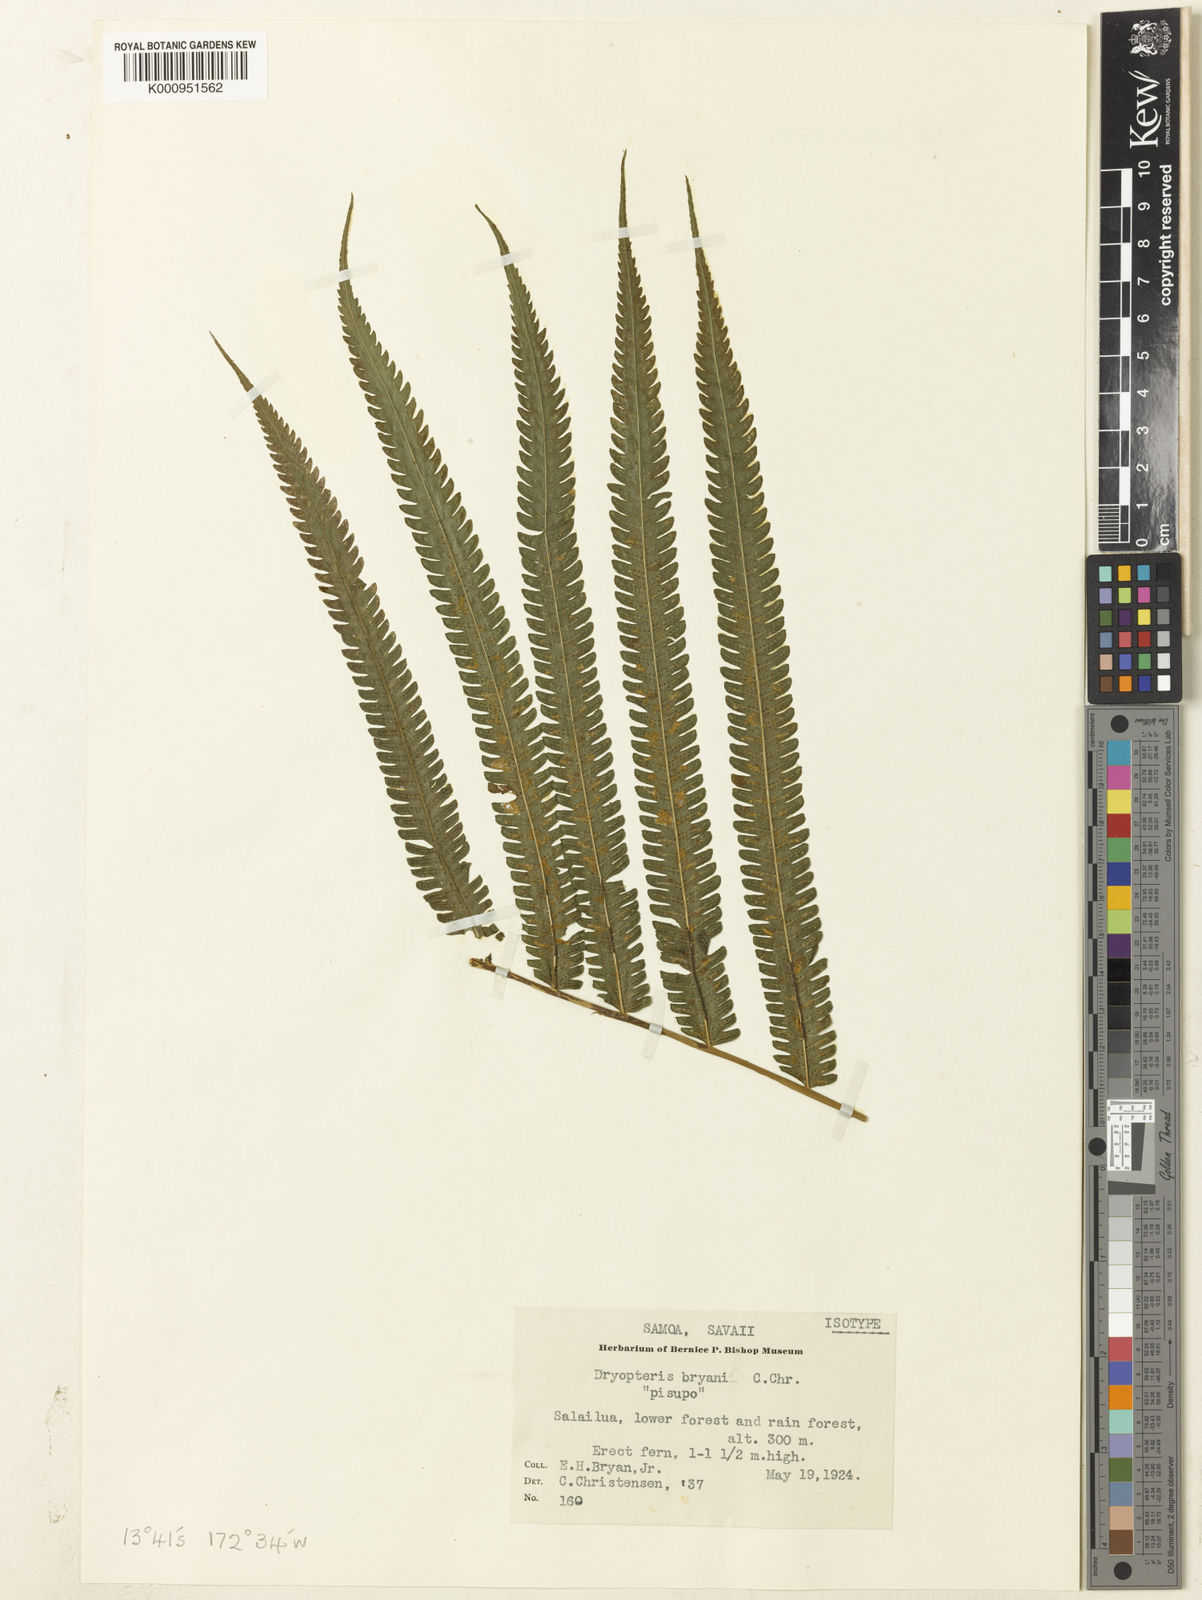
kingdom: Plantae
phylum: Tracheophyta
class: Polypodiopsida
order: Polypodiales
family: Thelypteridaceae
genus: Reholttumia
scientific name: Reholttumia bryanii
